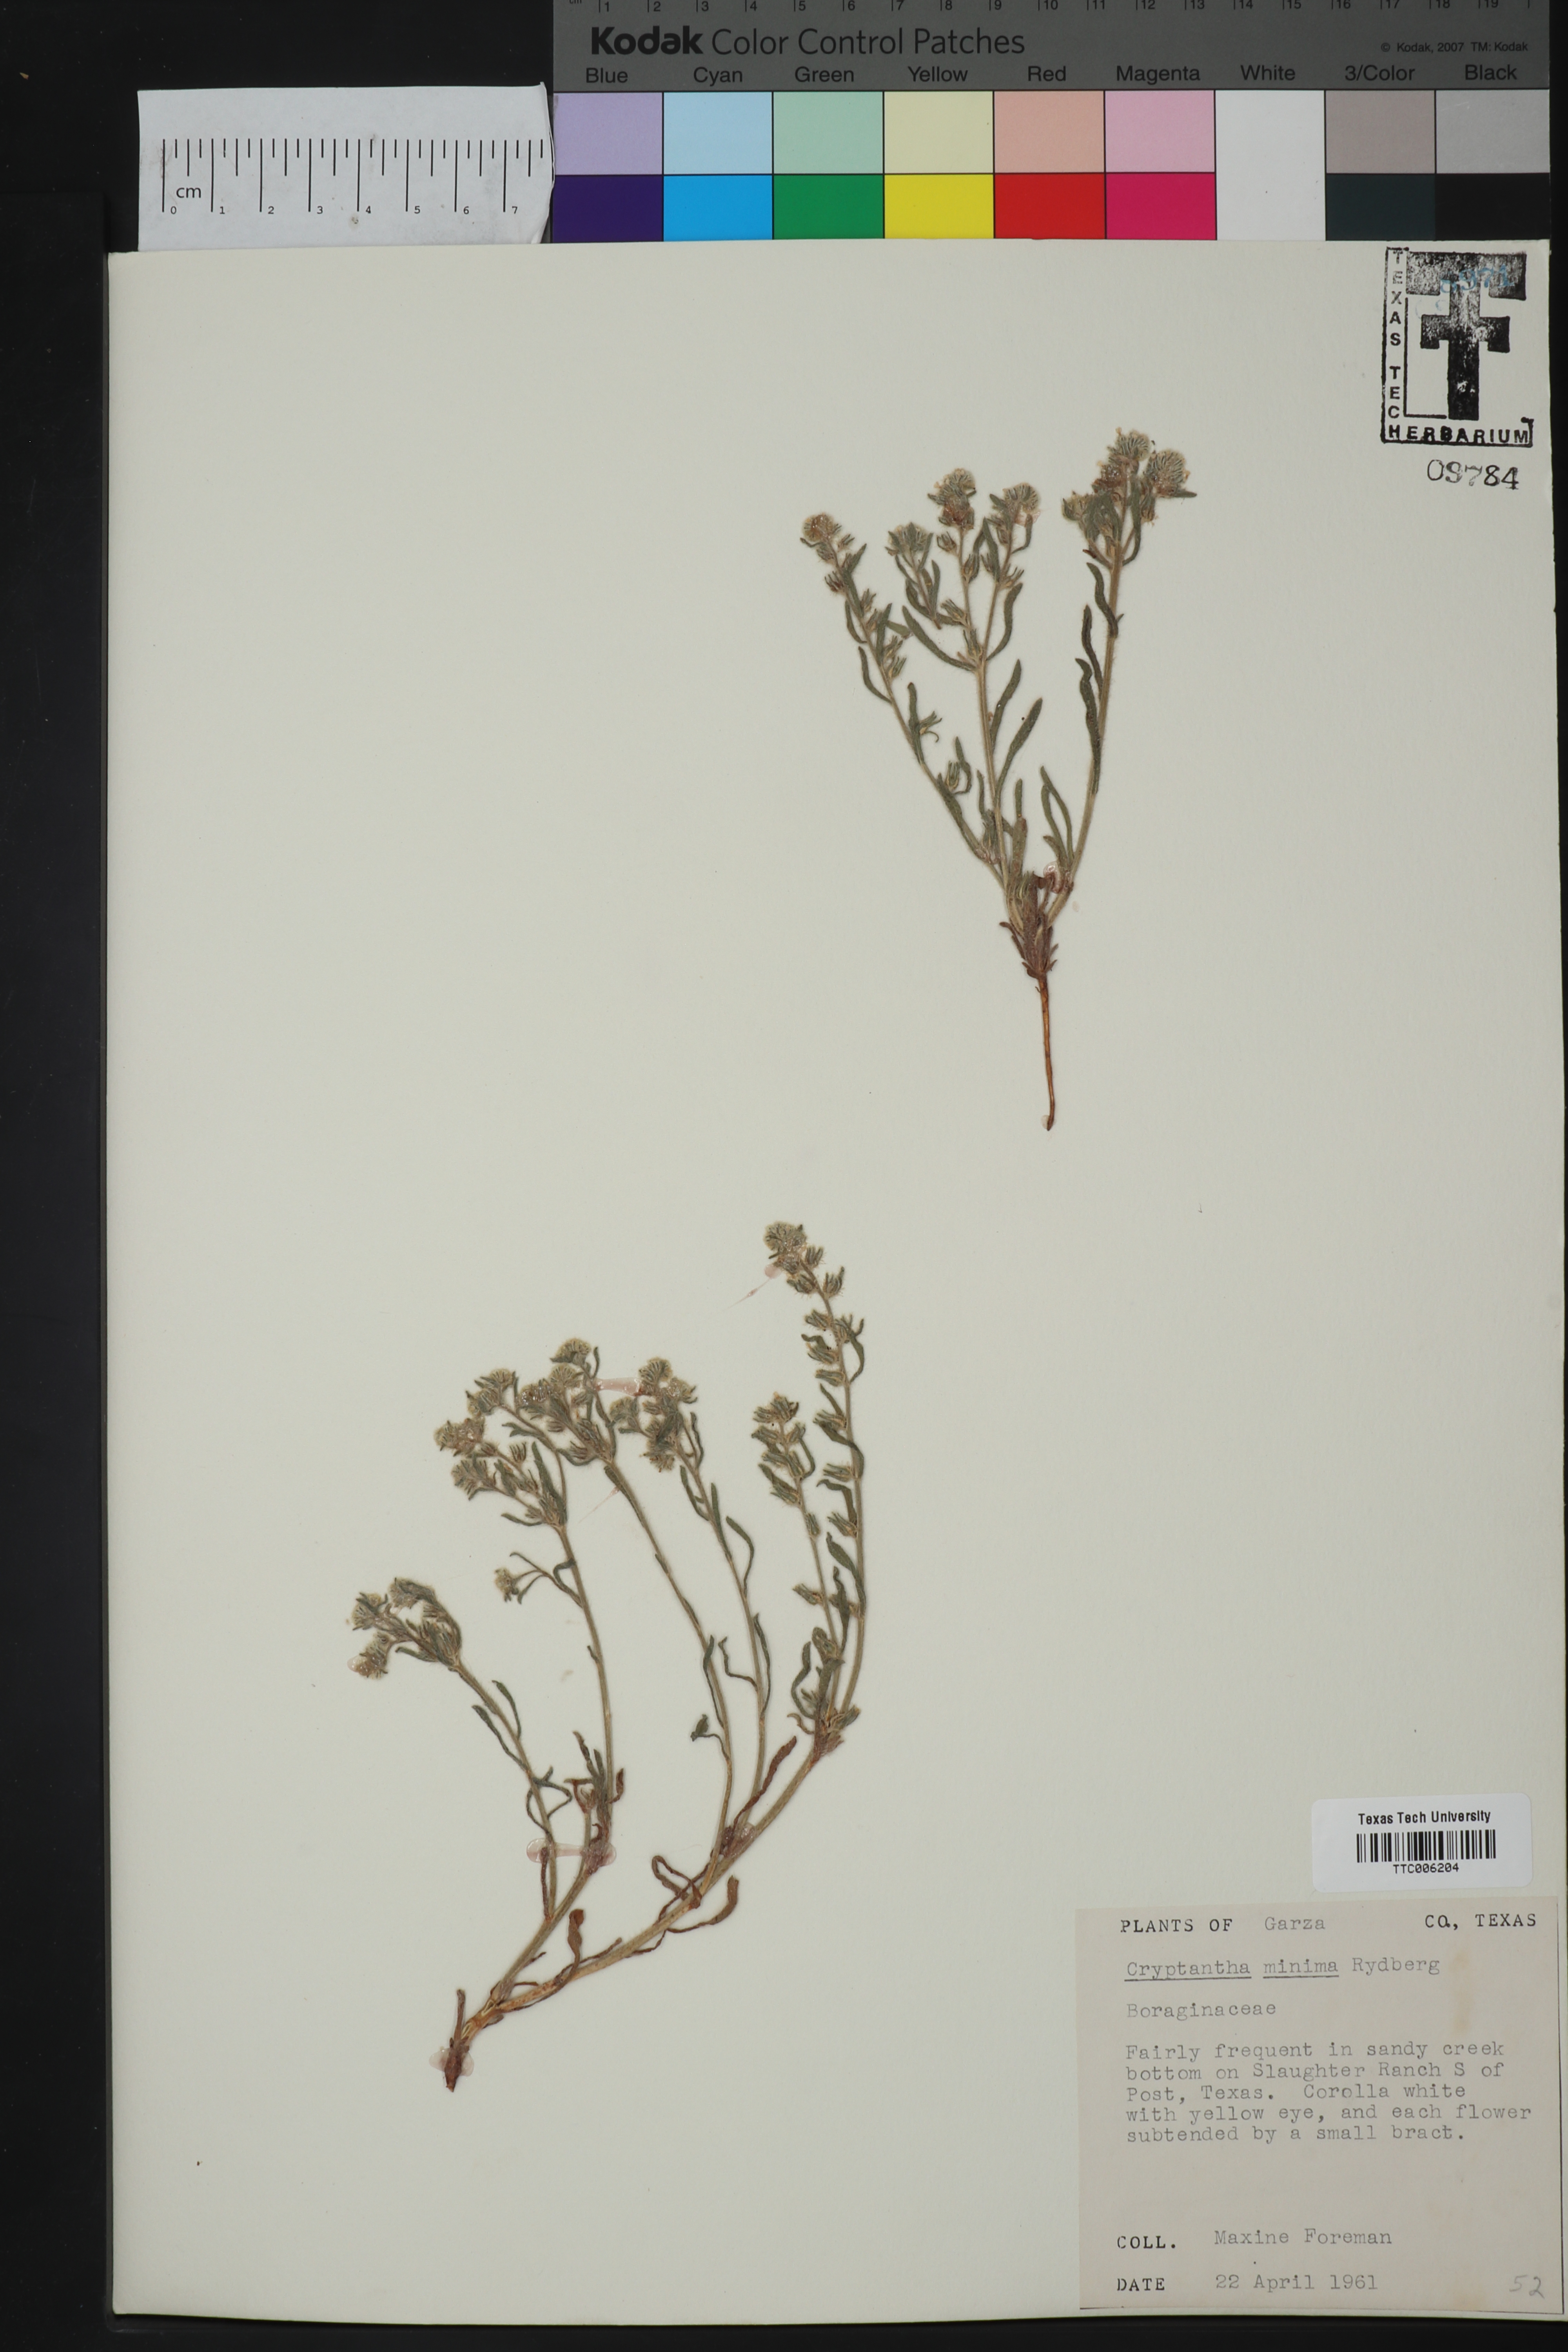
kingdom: Plantae
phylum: Tracheophyta
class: Magnoliopsida
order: Boraginales
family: Boraginaceae
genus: Cryptantha
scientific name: Cryptantha minima
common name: Little cat's-eye
